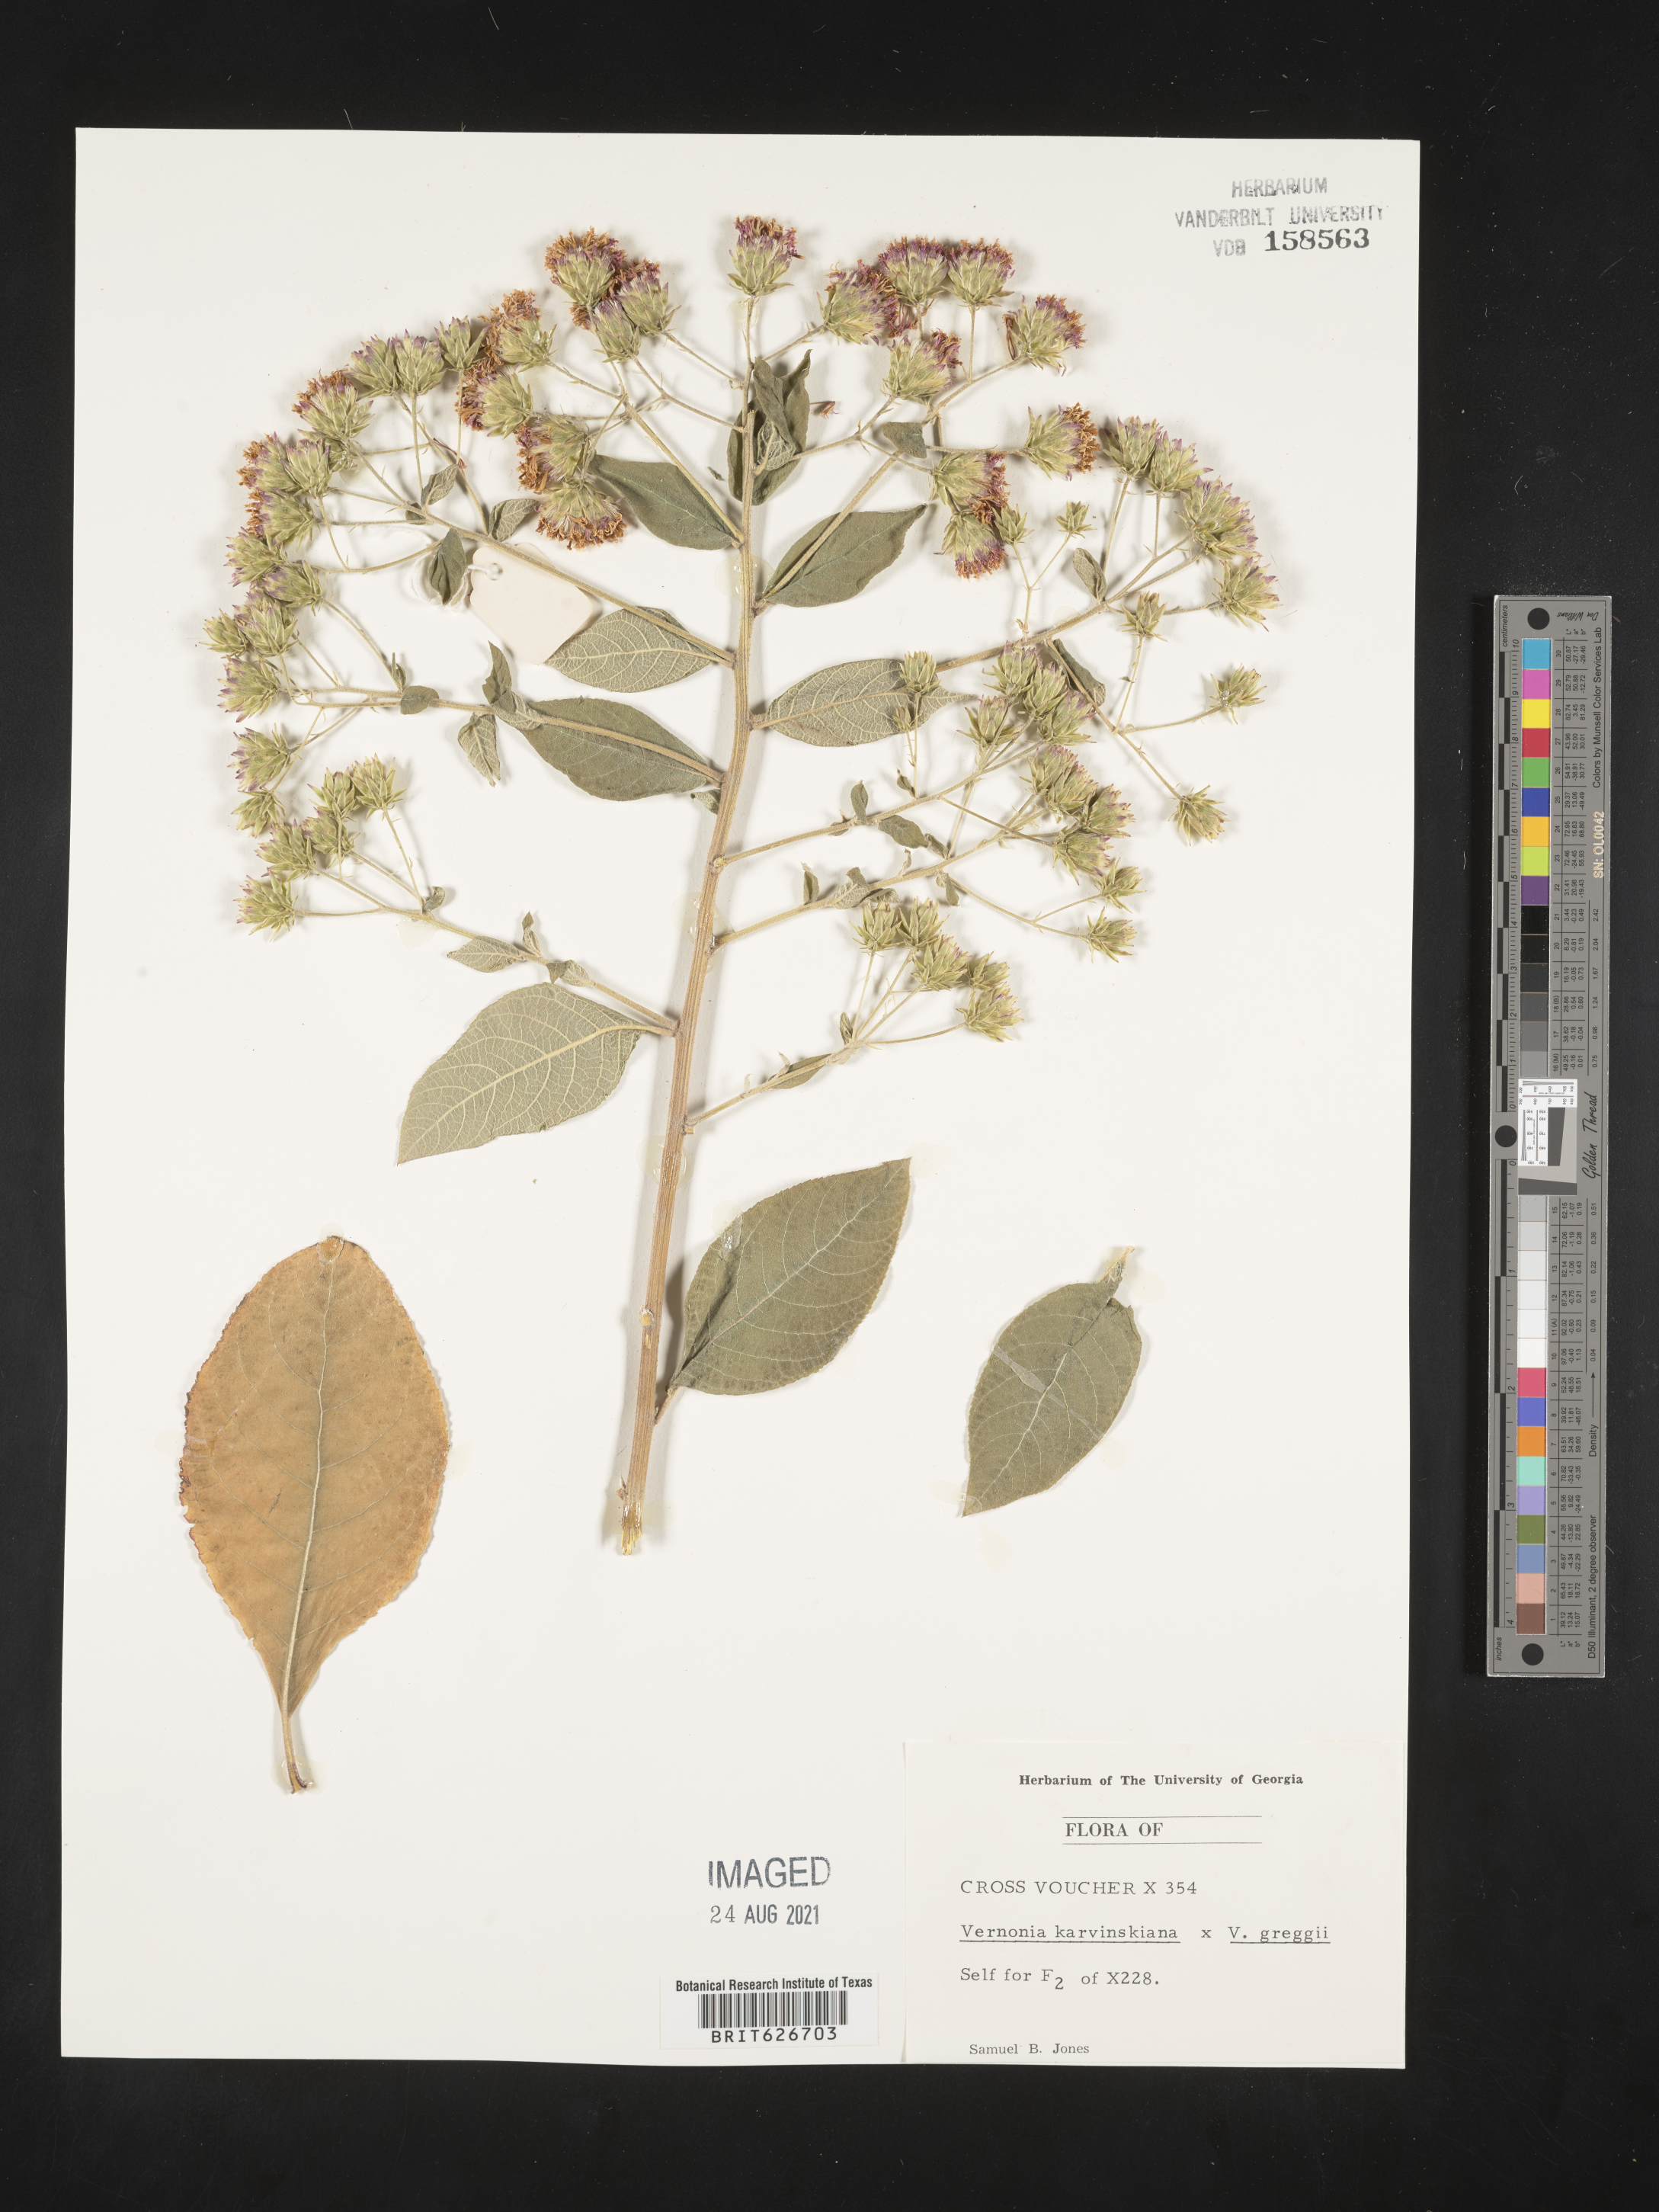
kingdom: Plantae
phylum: Tracheophyta
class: Magnoliopsida
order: Asterales
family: Asteraceae
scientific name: Asteraceae
